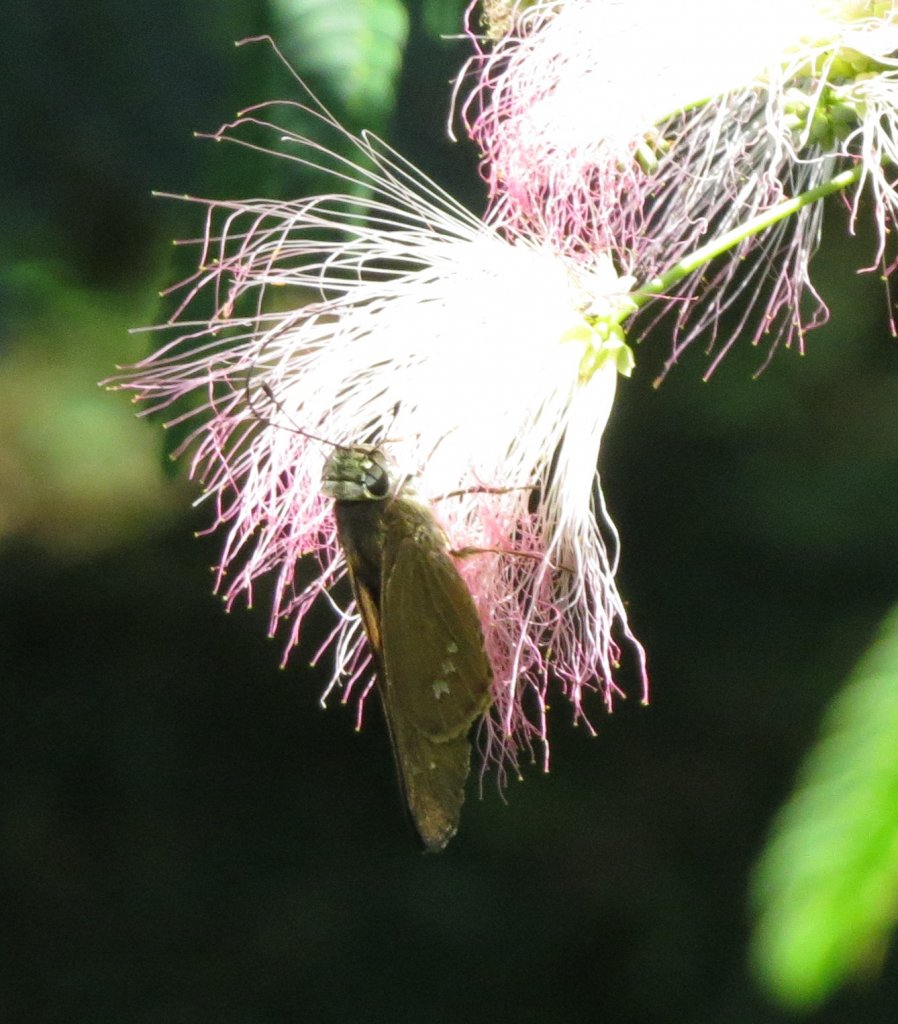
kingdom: Animalia
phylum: Arthropoda
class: Insecta
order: Lepidoptera
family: Hesperiidae
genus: Calpodes
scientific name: Calpodes ethlius
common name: Brazilian Skipper
